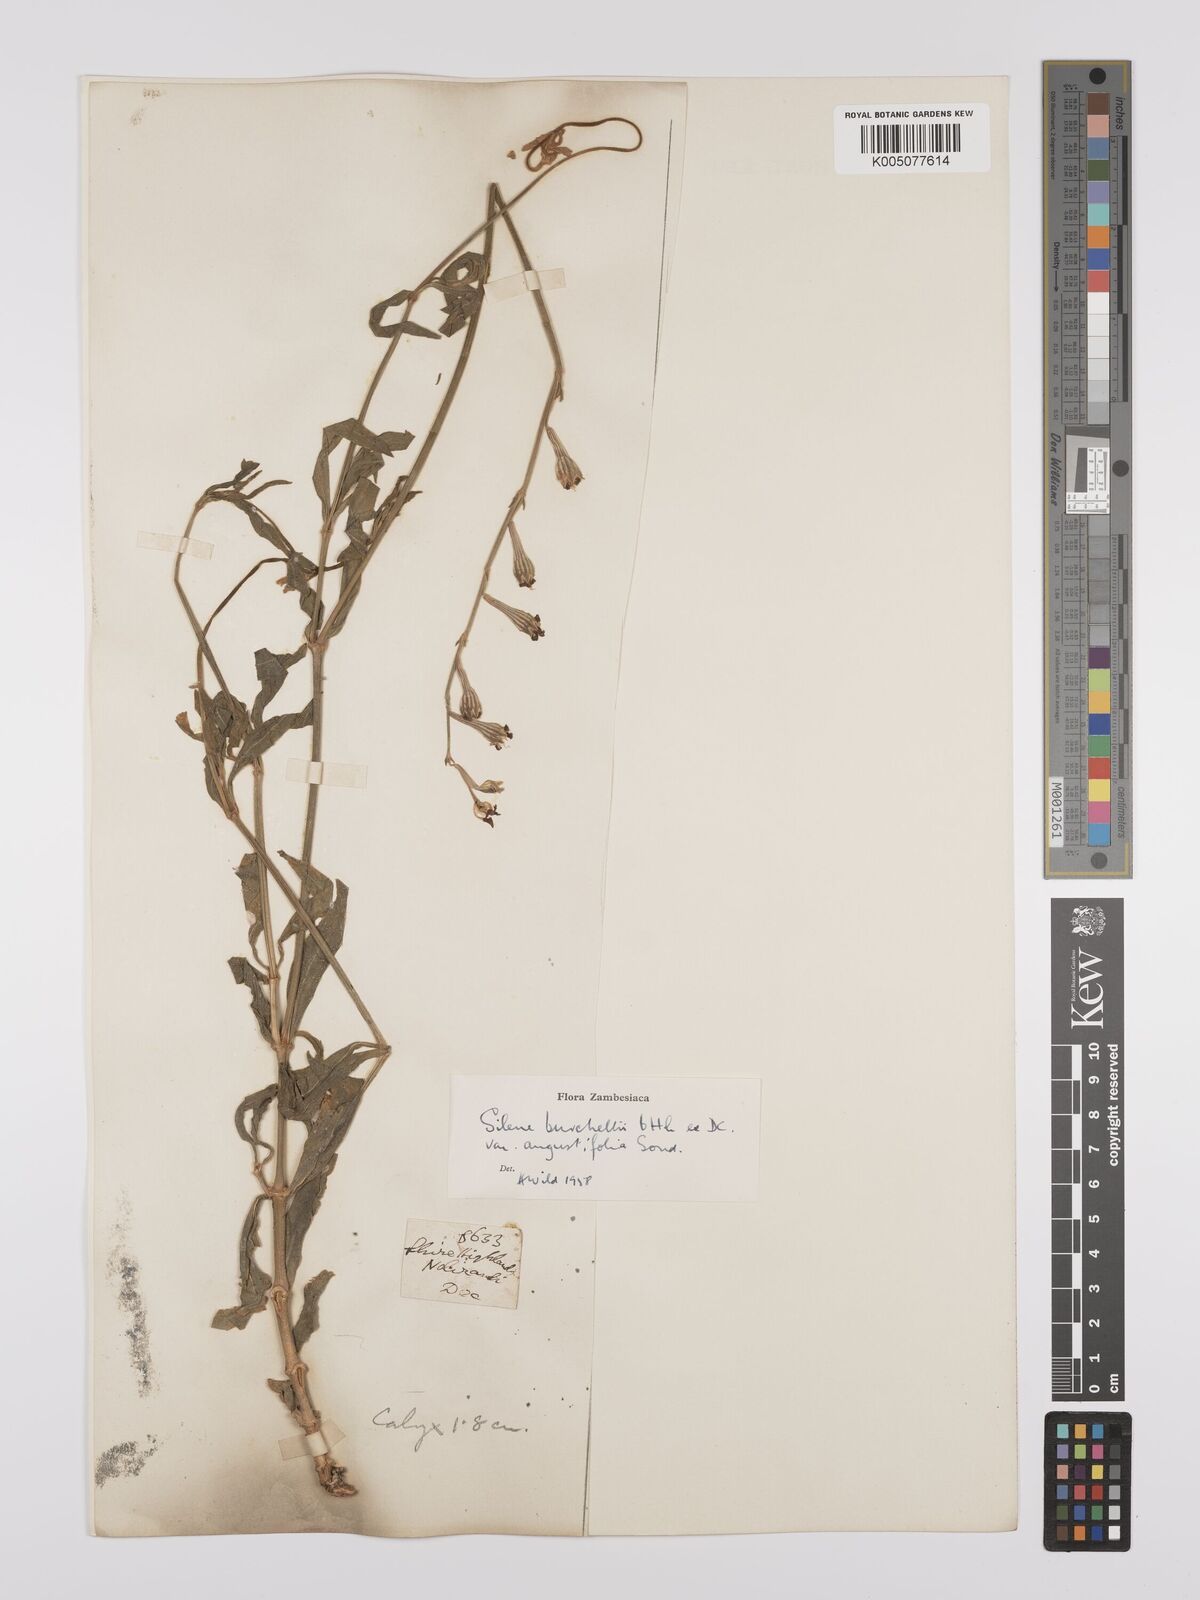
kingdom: Plantae
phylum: Tracheophyta
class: Magnoliopsida
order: Caryophyllales
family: Caryophyllaceae
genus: Silene
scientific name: Silene burchellii
